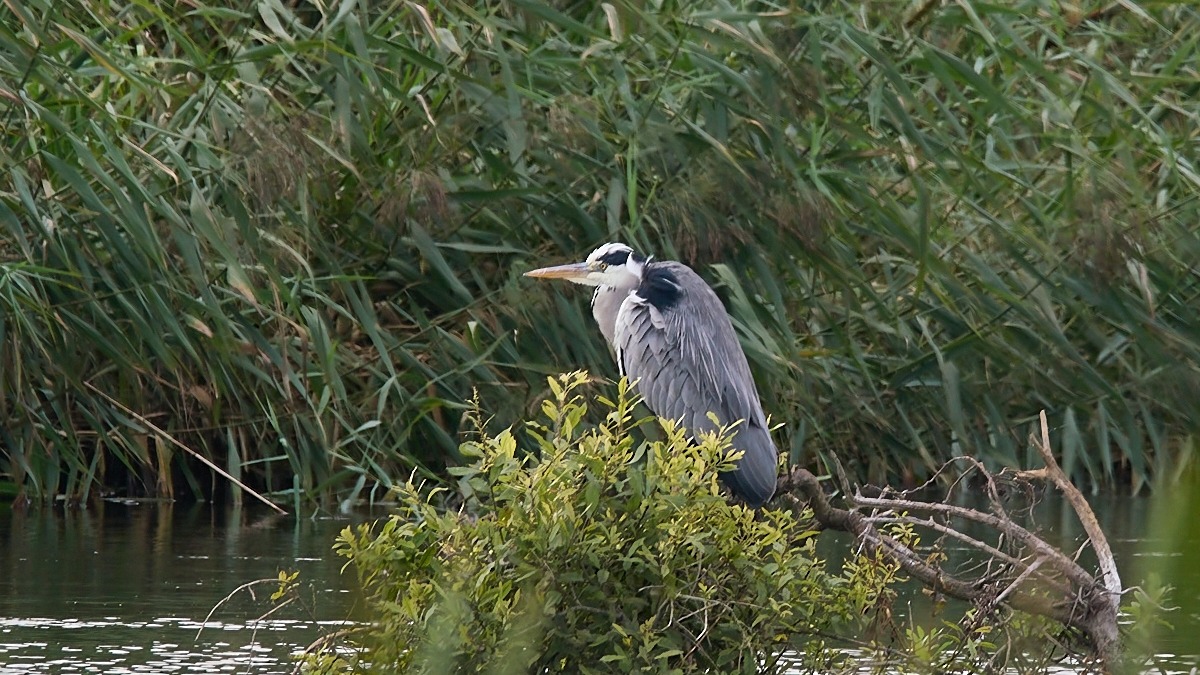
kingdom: Animalia
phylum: Chordata
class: Aves
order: Pelecaniformes
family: Ardeidae
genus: Ardea
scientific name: Ardea cinerea
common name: Fiskehejre
